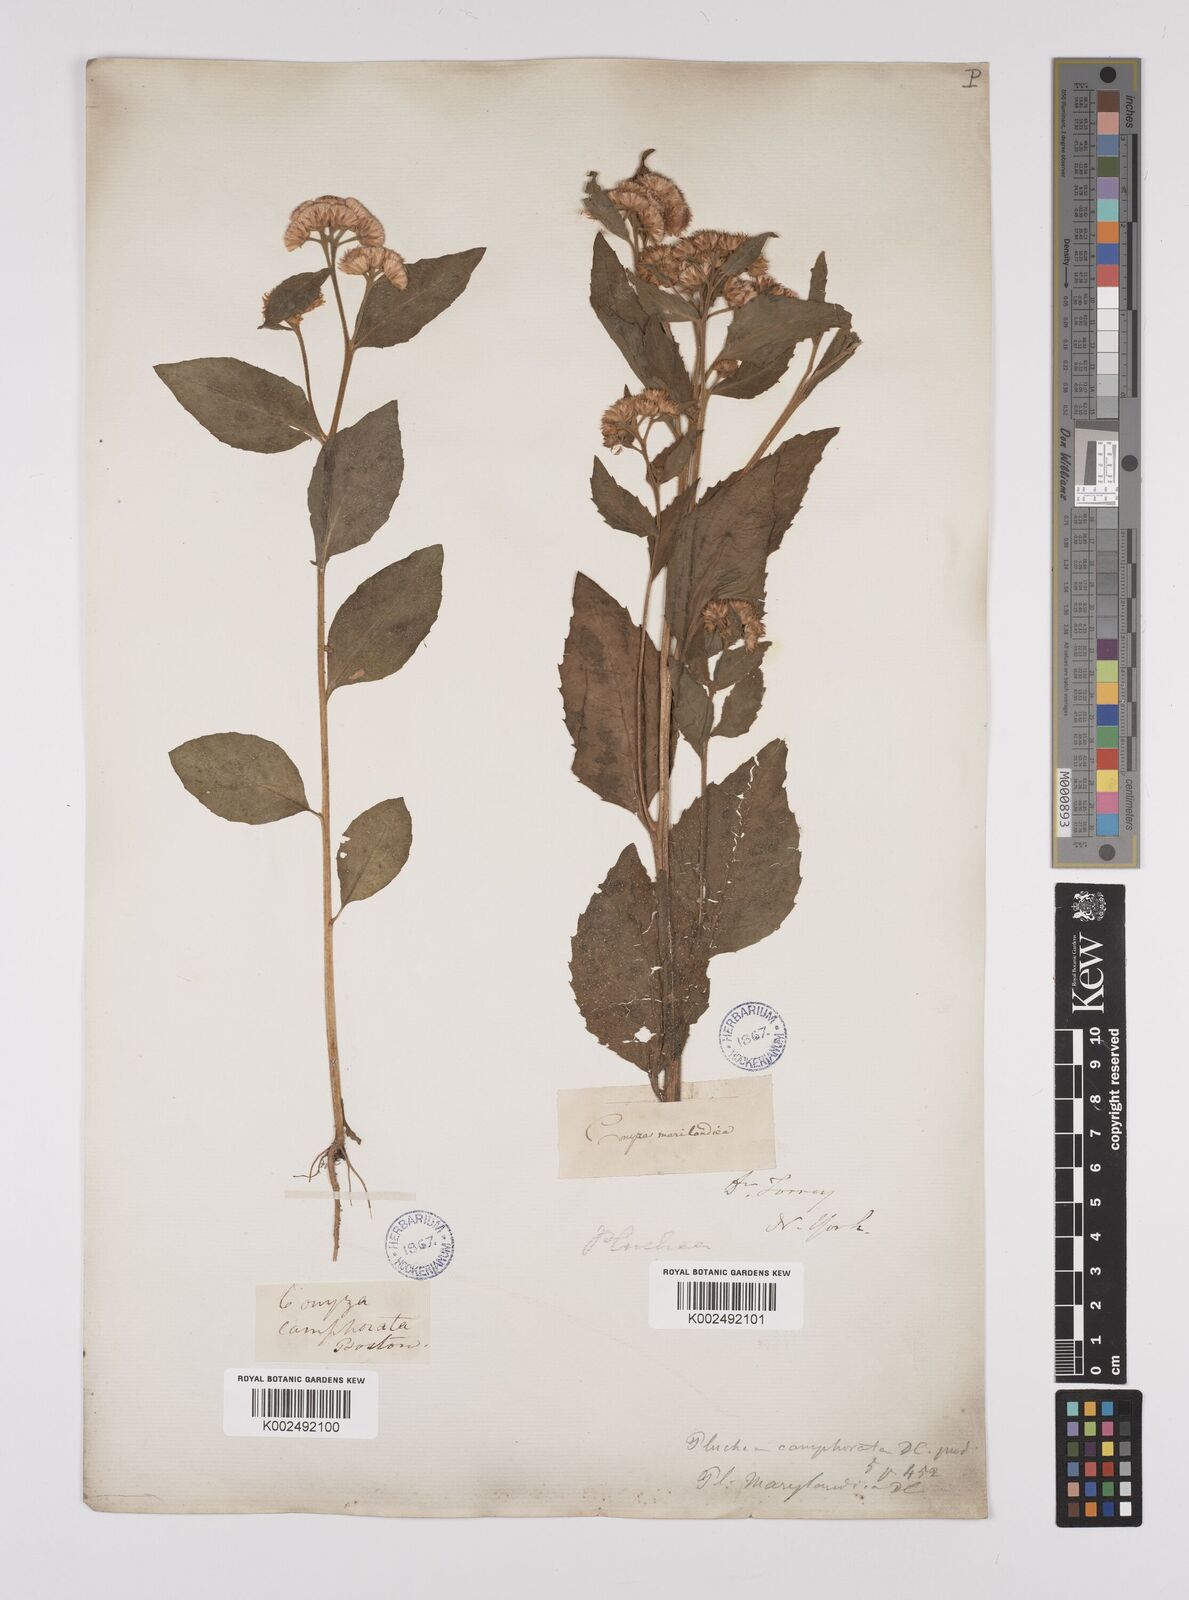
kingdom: Plantae
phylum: Tracheophyta
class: Magnoliopsida
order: Asterales
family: Asteraceae
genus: Pluchea
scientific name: Pluchea camphorata
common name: Camphor pluchea
